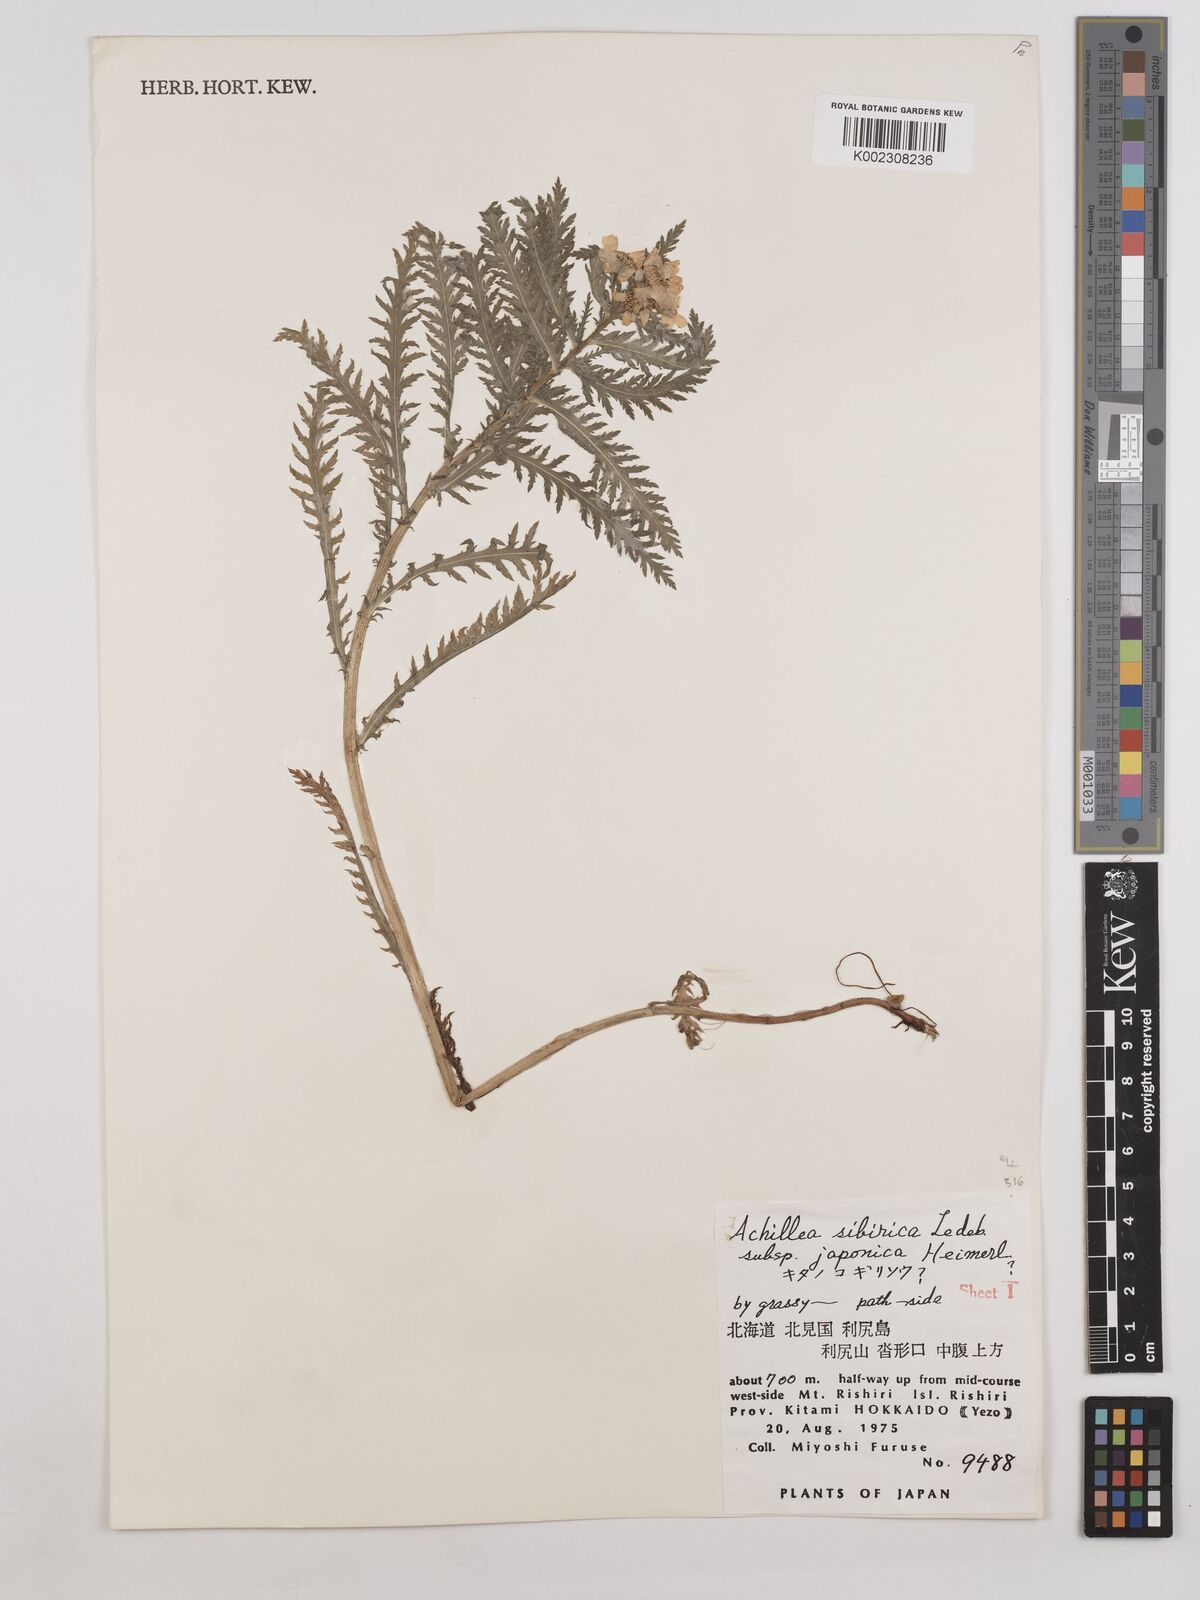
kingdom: Plantae
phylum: Tracheophyta
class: Magnoliopsida
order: Asterales
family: Asteraceae
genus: Achillea
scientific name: Achillea alpina
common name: Siberian yarrow
